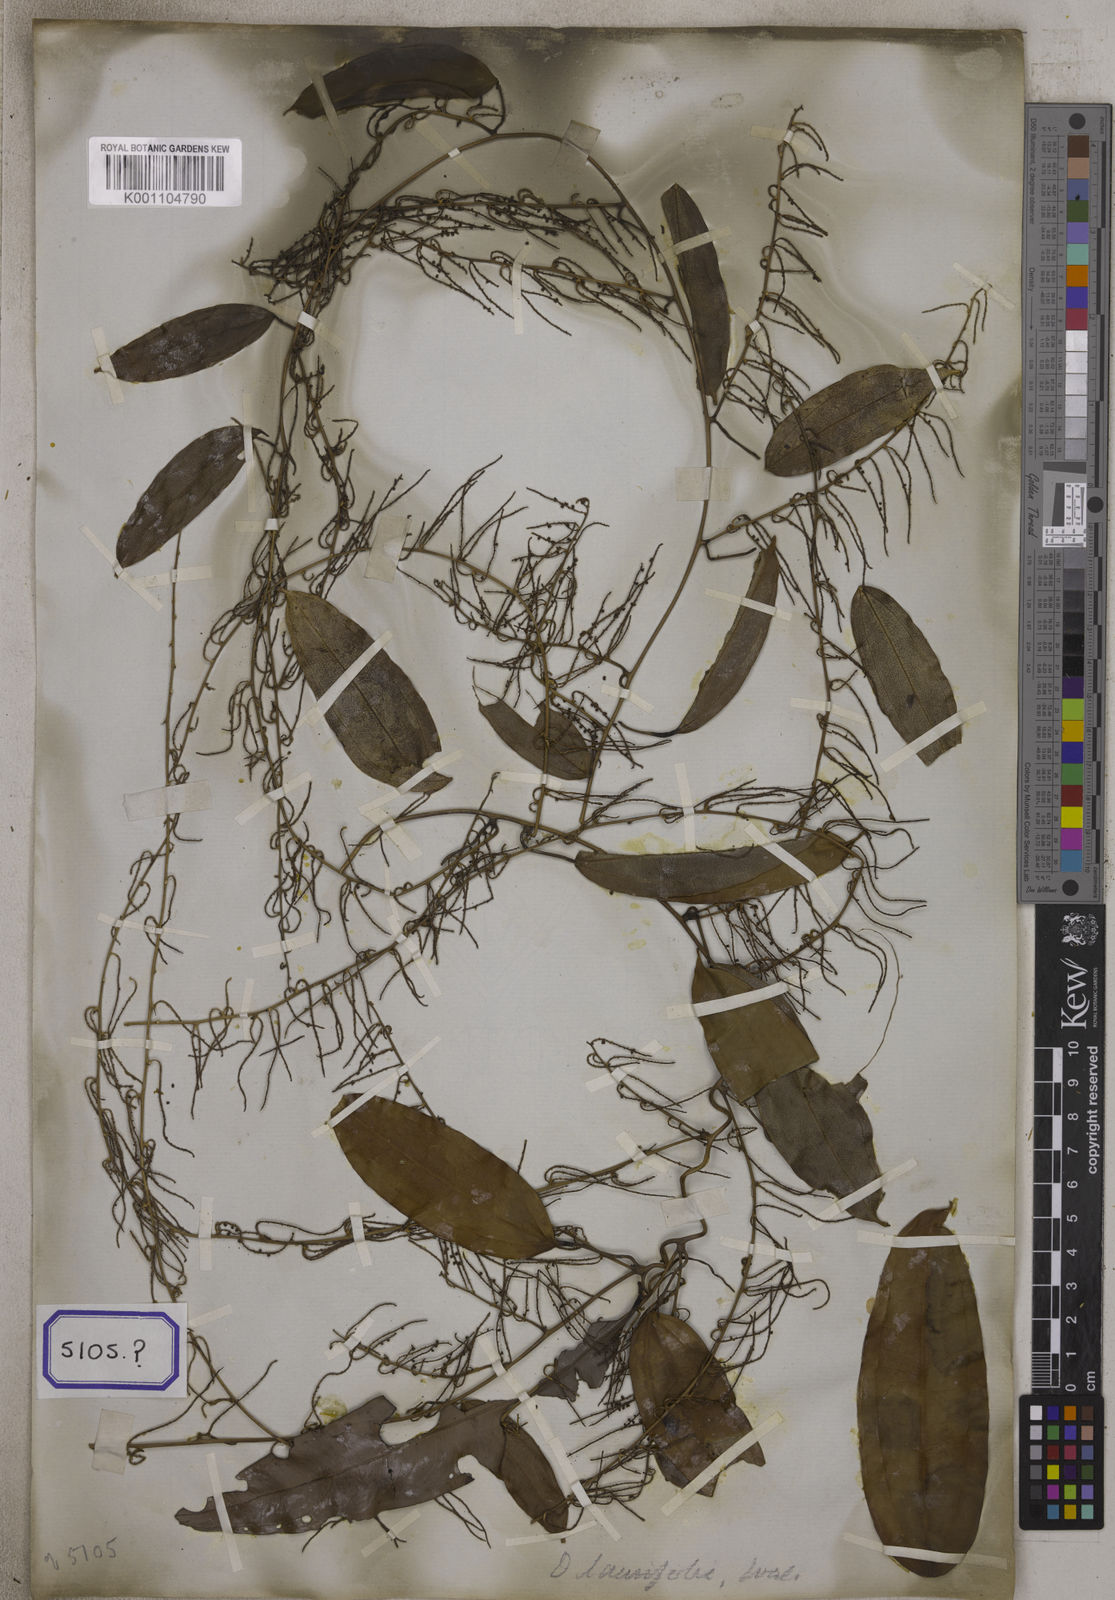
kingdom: Plantae
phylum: Tracheophyta
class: Liliopsida
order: Dioscoreales
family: Dioscoreaceae
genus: Dioscorea
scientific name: Dioscorea glabra
